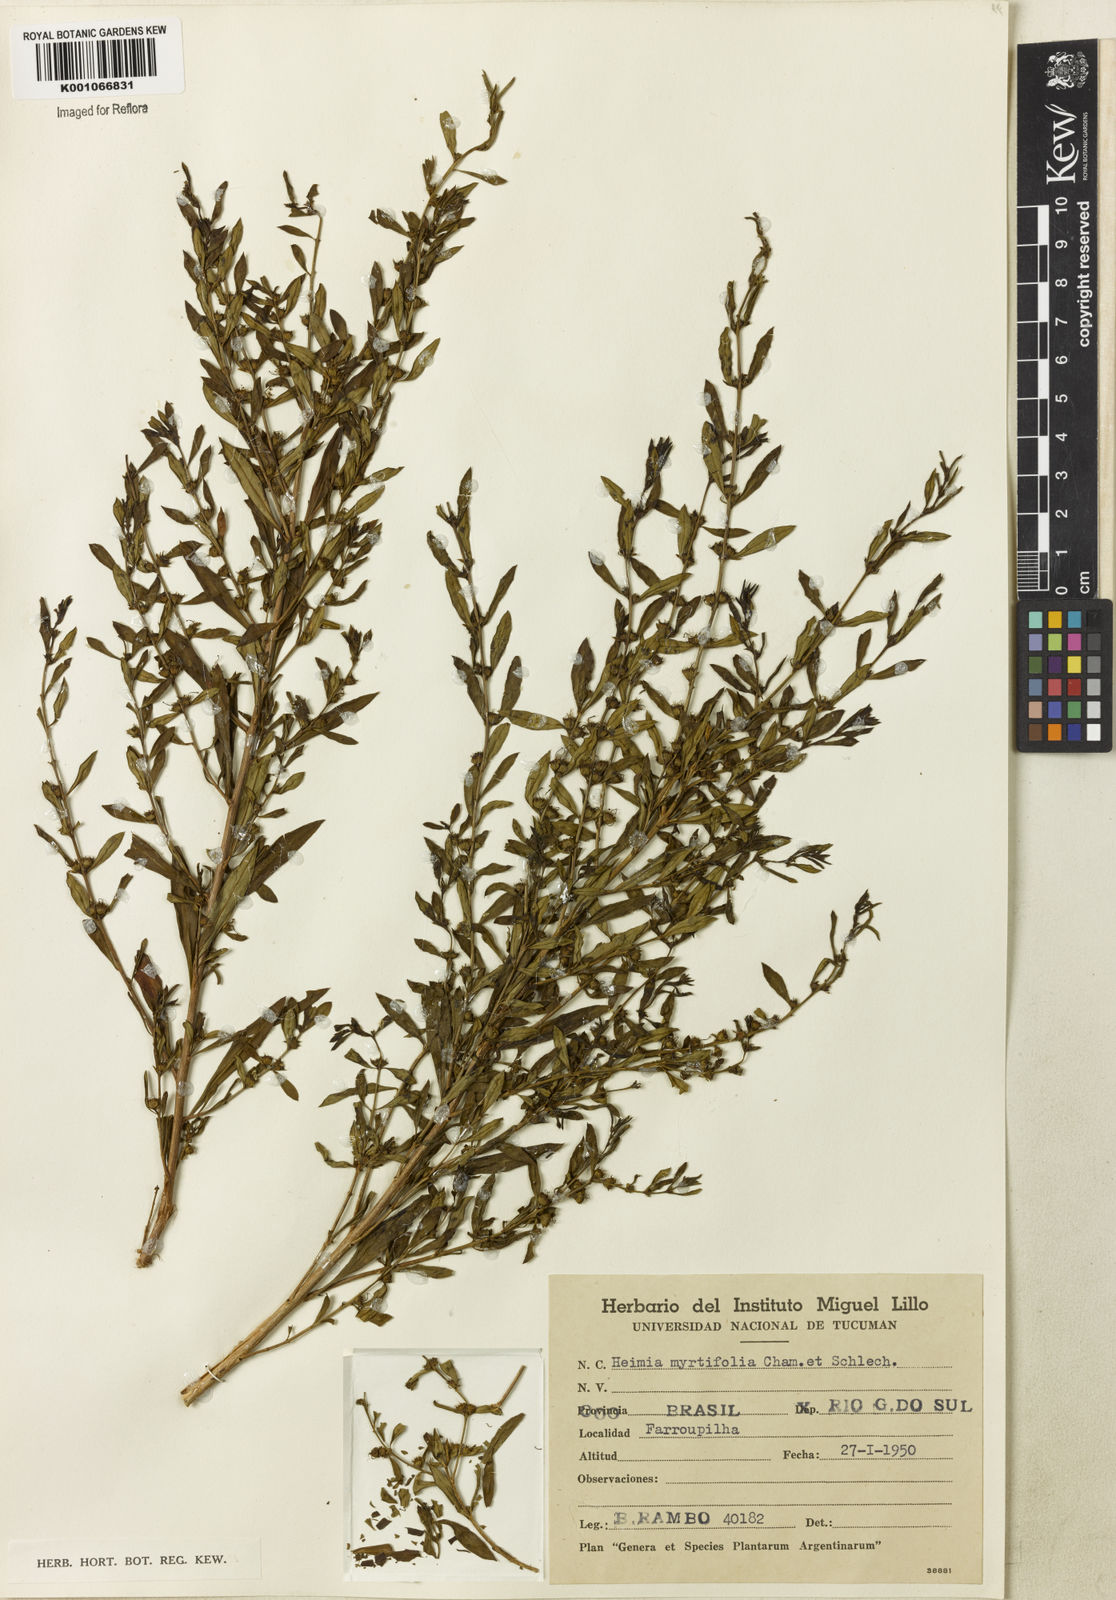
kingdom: Plantae
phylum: Tracheophyta
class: Magnoliopsida
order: Myrtales
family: Lythraceae
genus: Heimia
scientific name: Heimia apetala
